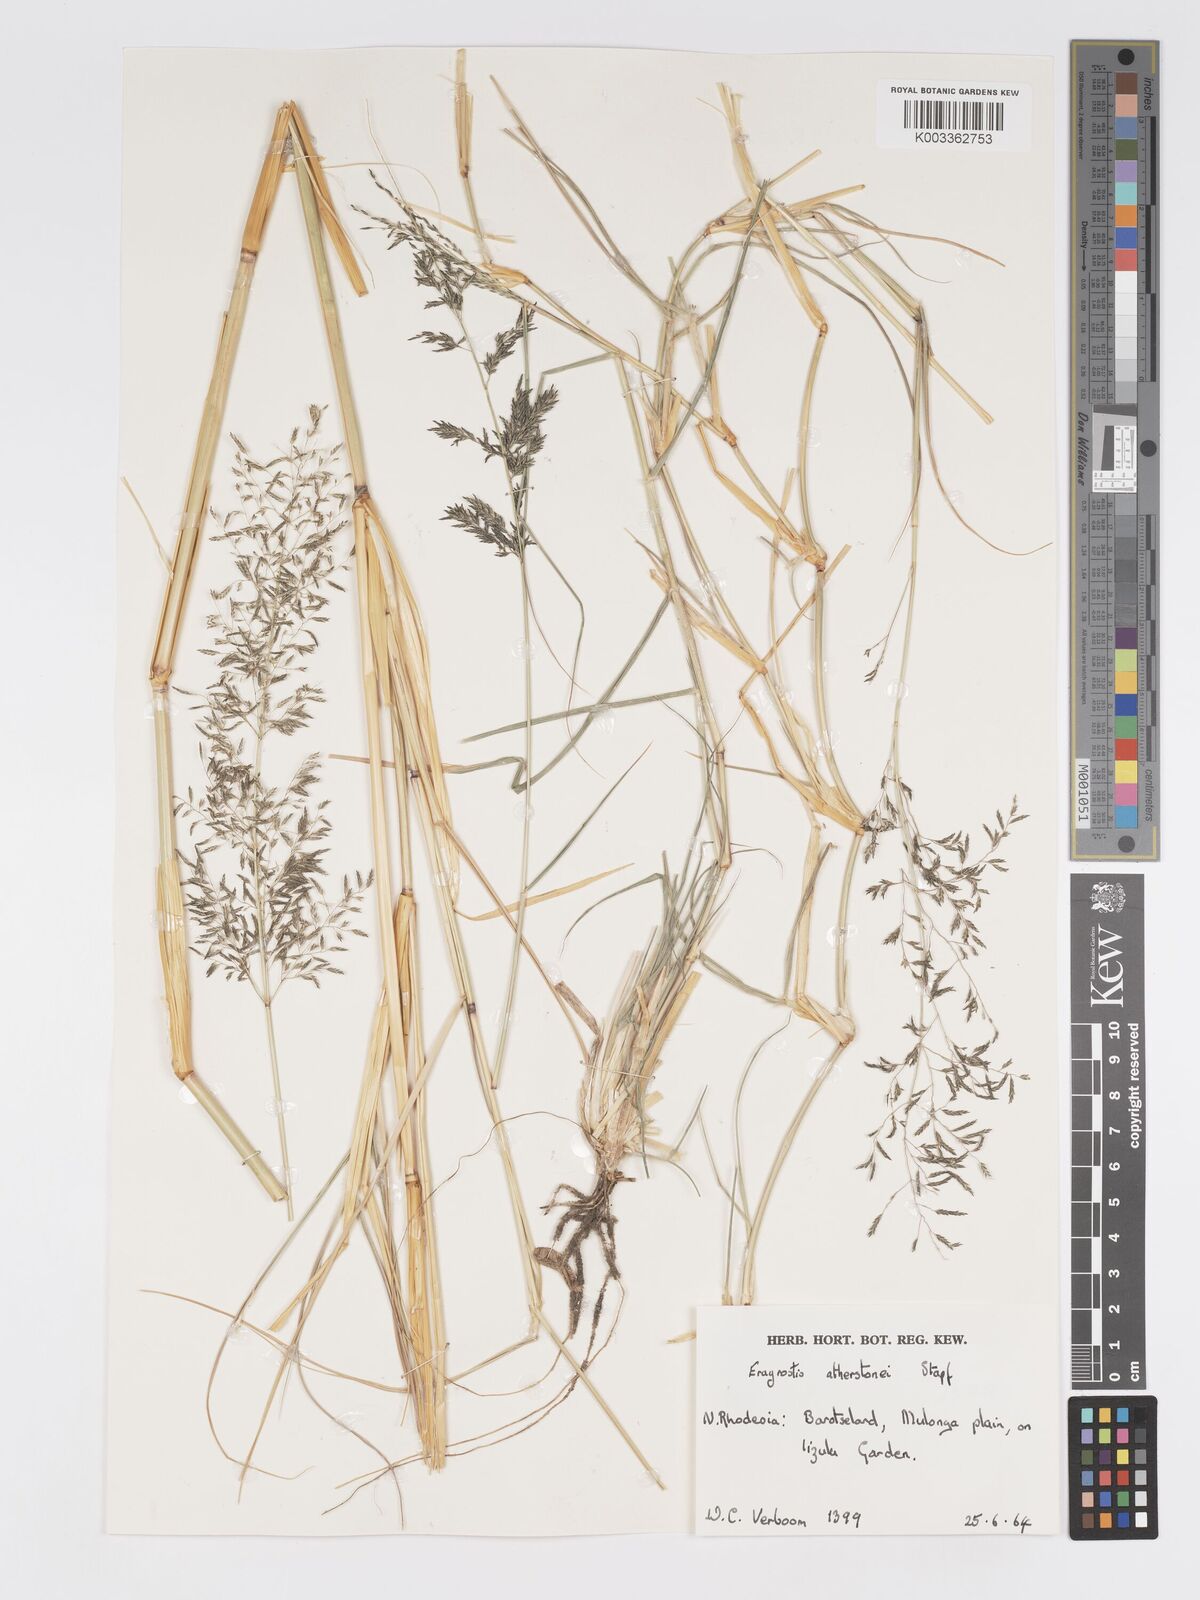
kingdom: Plantae
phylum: Tracheophyta
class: Liliopsida
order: Poales
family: Poaceae
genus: Eragrostis
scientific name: Eragrostis cylindriflora
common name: Cylinderflower lovegrass
